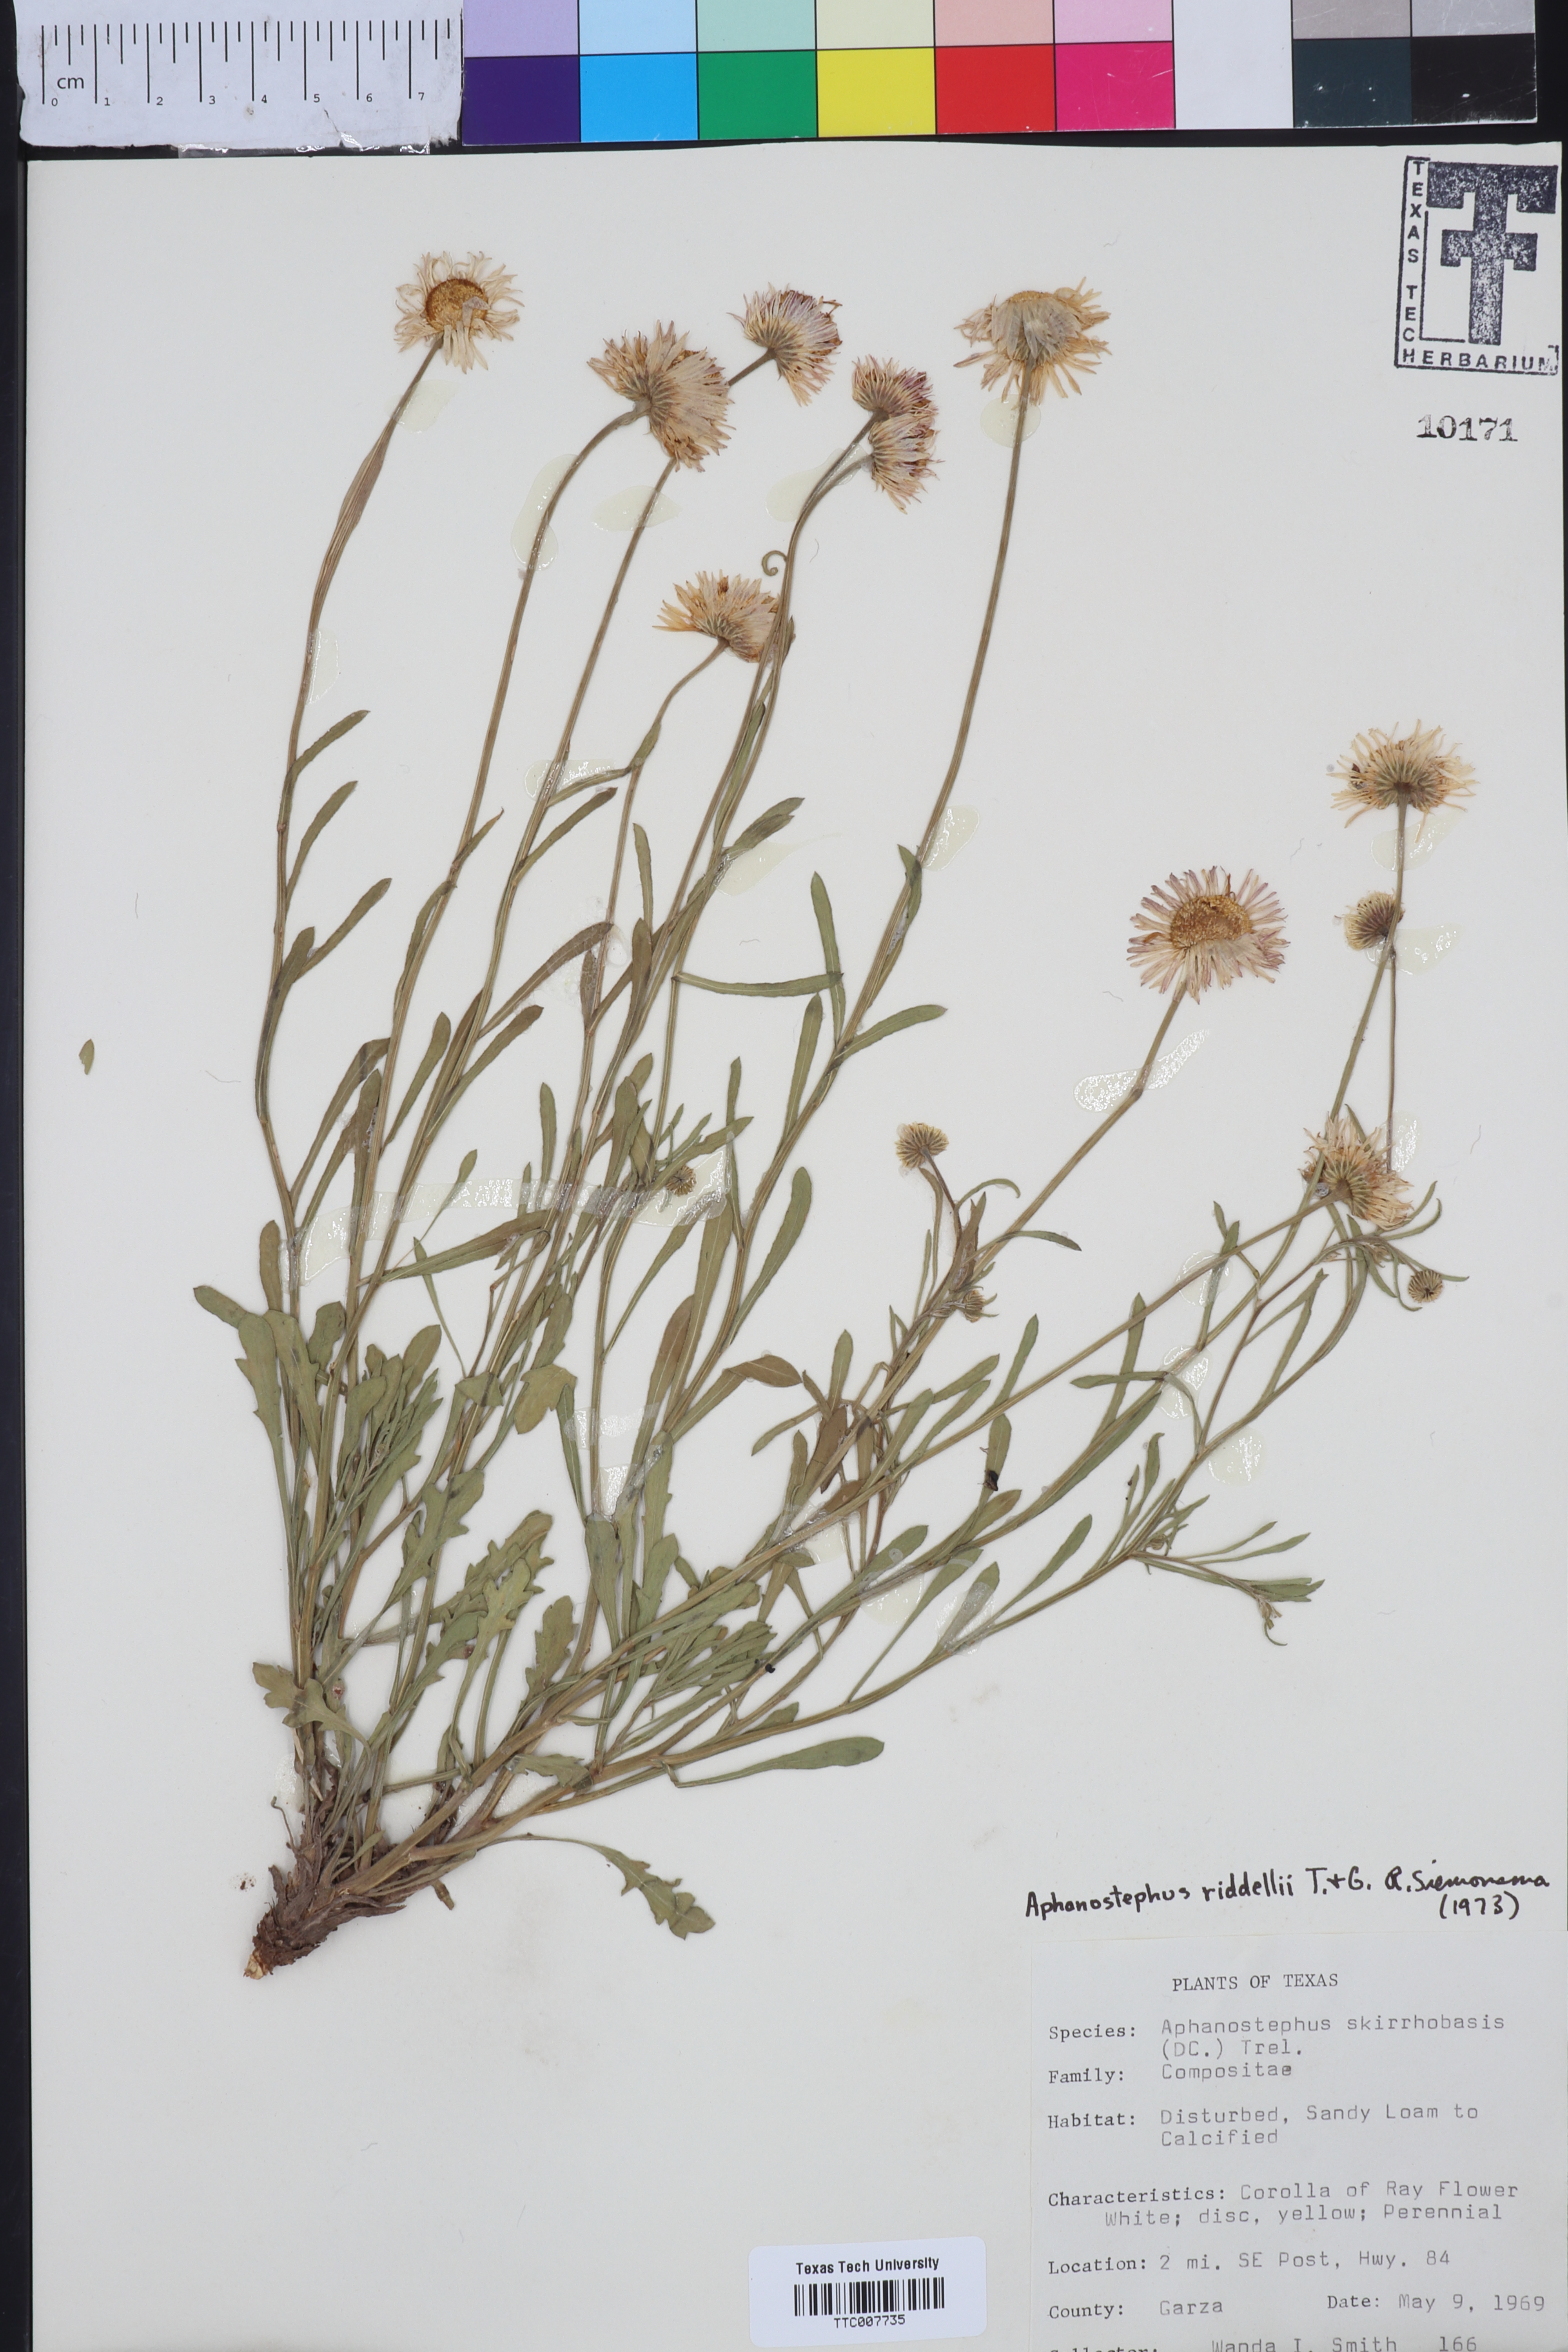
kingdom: Plantae
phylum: Tracheophyta
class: Magnoliopsida
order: Asterales
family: Asteraceae
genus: Aphanostephus
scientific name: Aphanostephus riddellii
